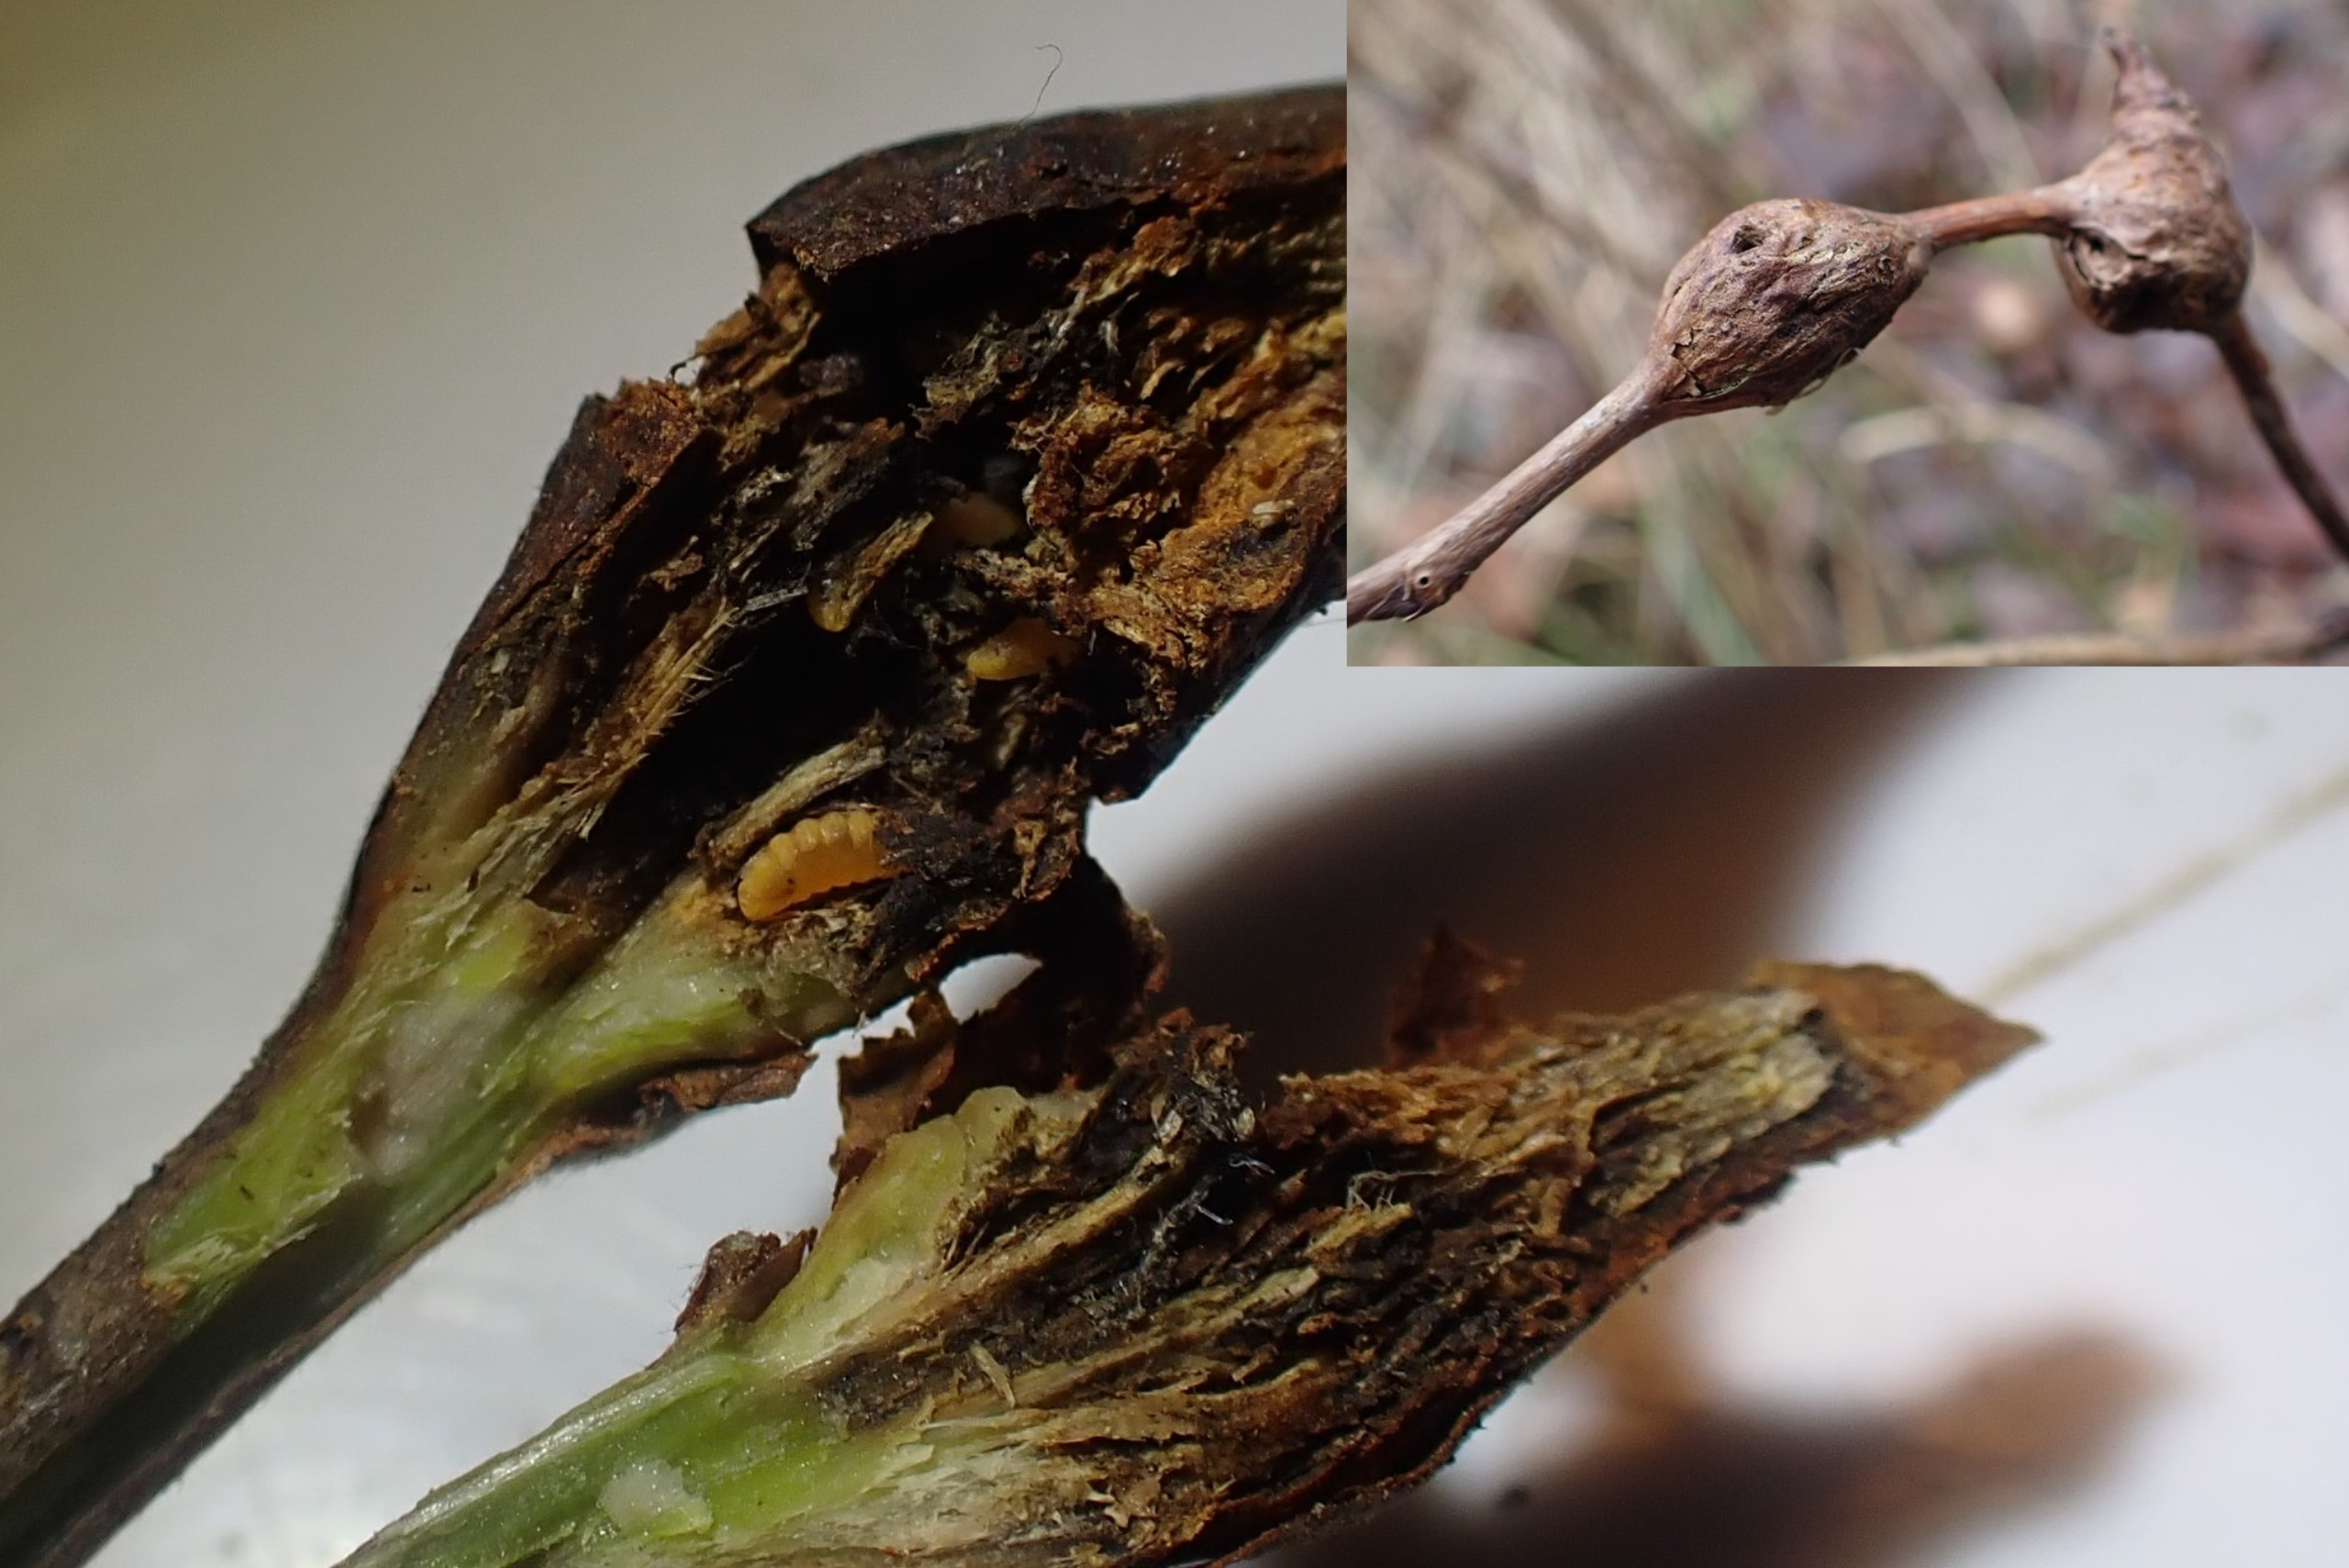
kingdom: Animalia
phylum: Arthropoda
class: Insecta
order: Diptera
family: Cecidomyiidae
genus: Lasioptera
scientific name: Lasioptera rubi
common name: Hindbærstængelgalmyg
